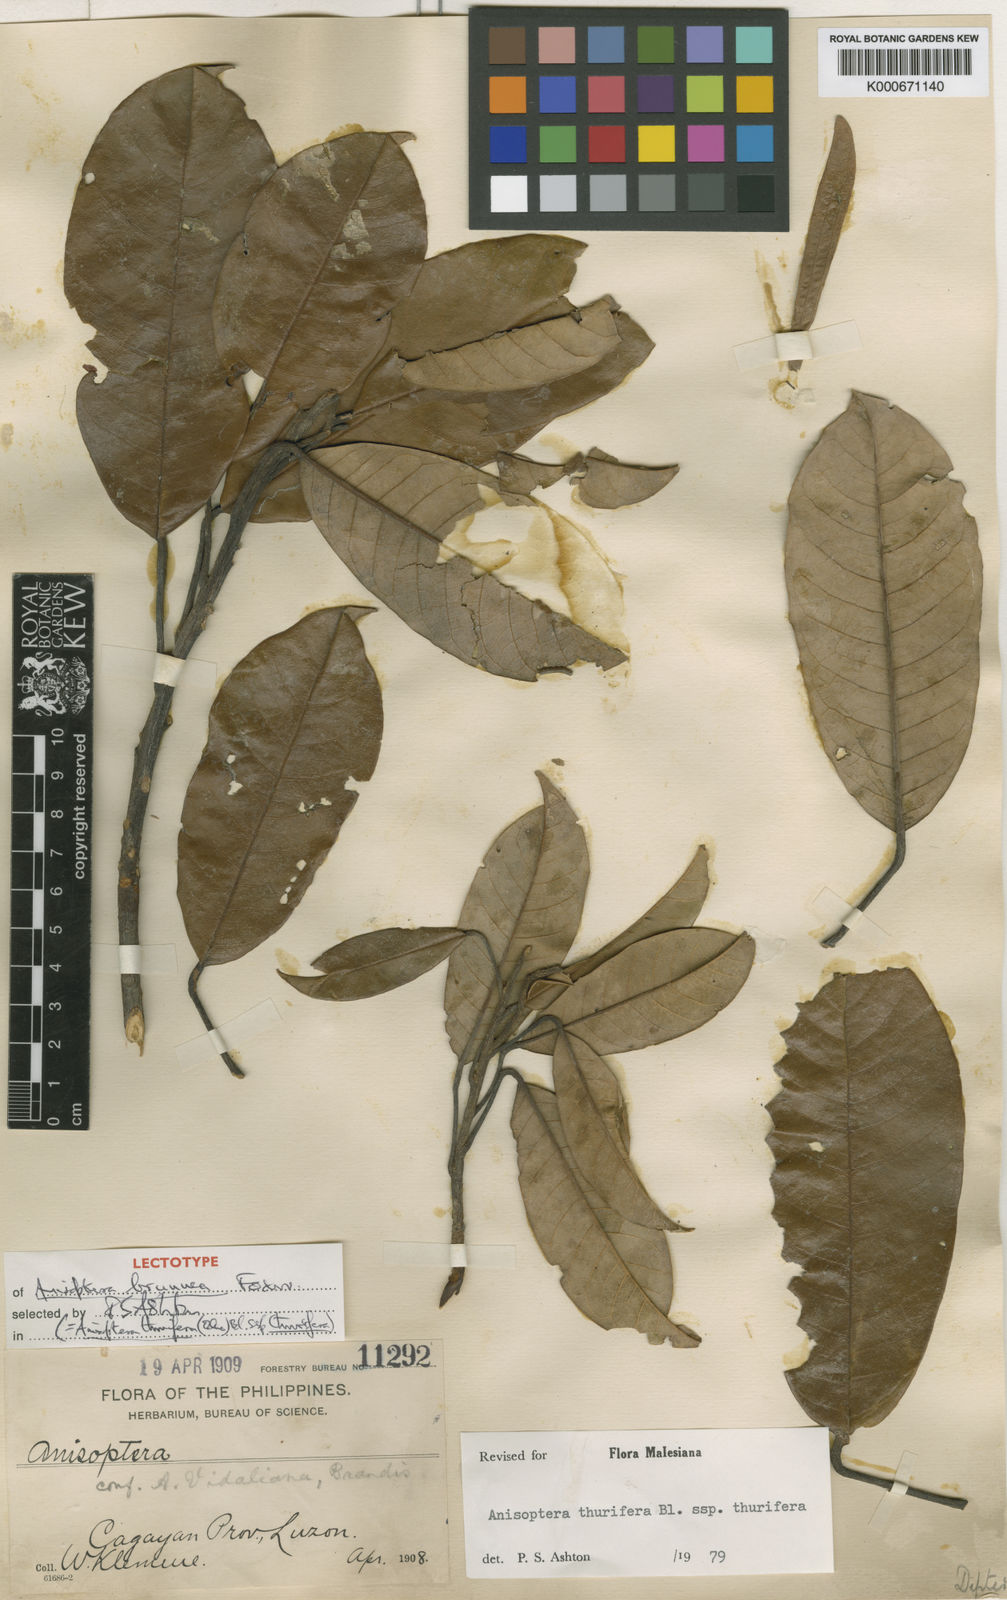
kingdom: Plantae
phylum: Tracheophyta
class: Magnoliopsida
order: Malvales
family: Dipterocarpaceae
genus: Anisoptera
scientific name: Anisoptera thurifera
